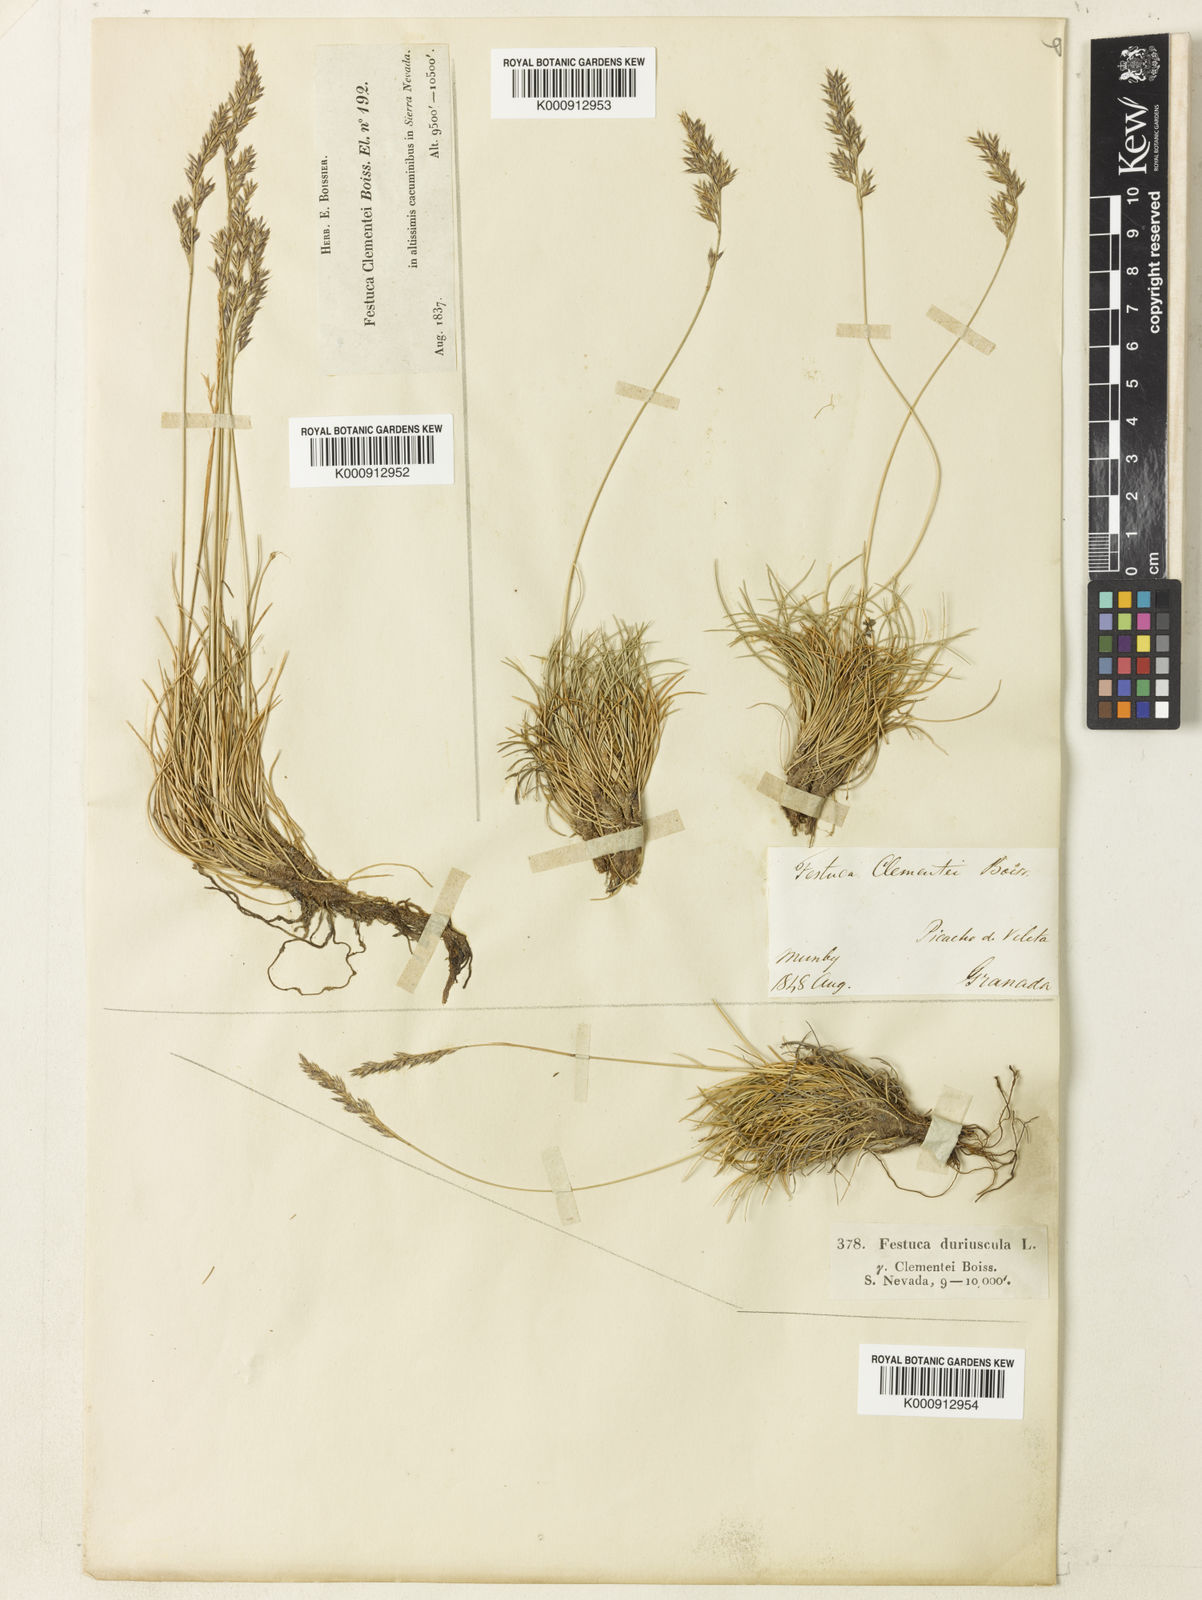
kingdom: Plantae
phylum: Tracheophyta
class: Liliopsida
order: Poales
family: Poaceae
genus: Festuca
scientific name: Festuca clementei
